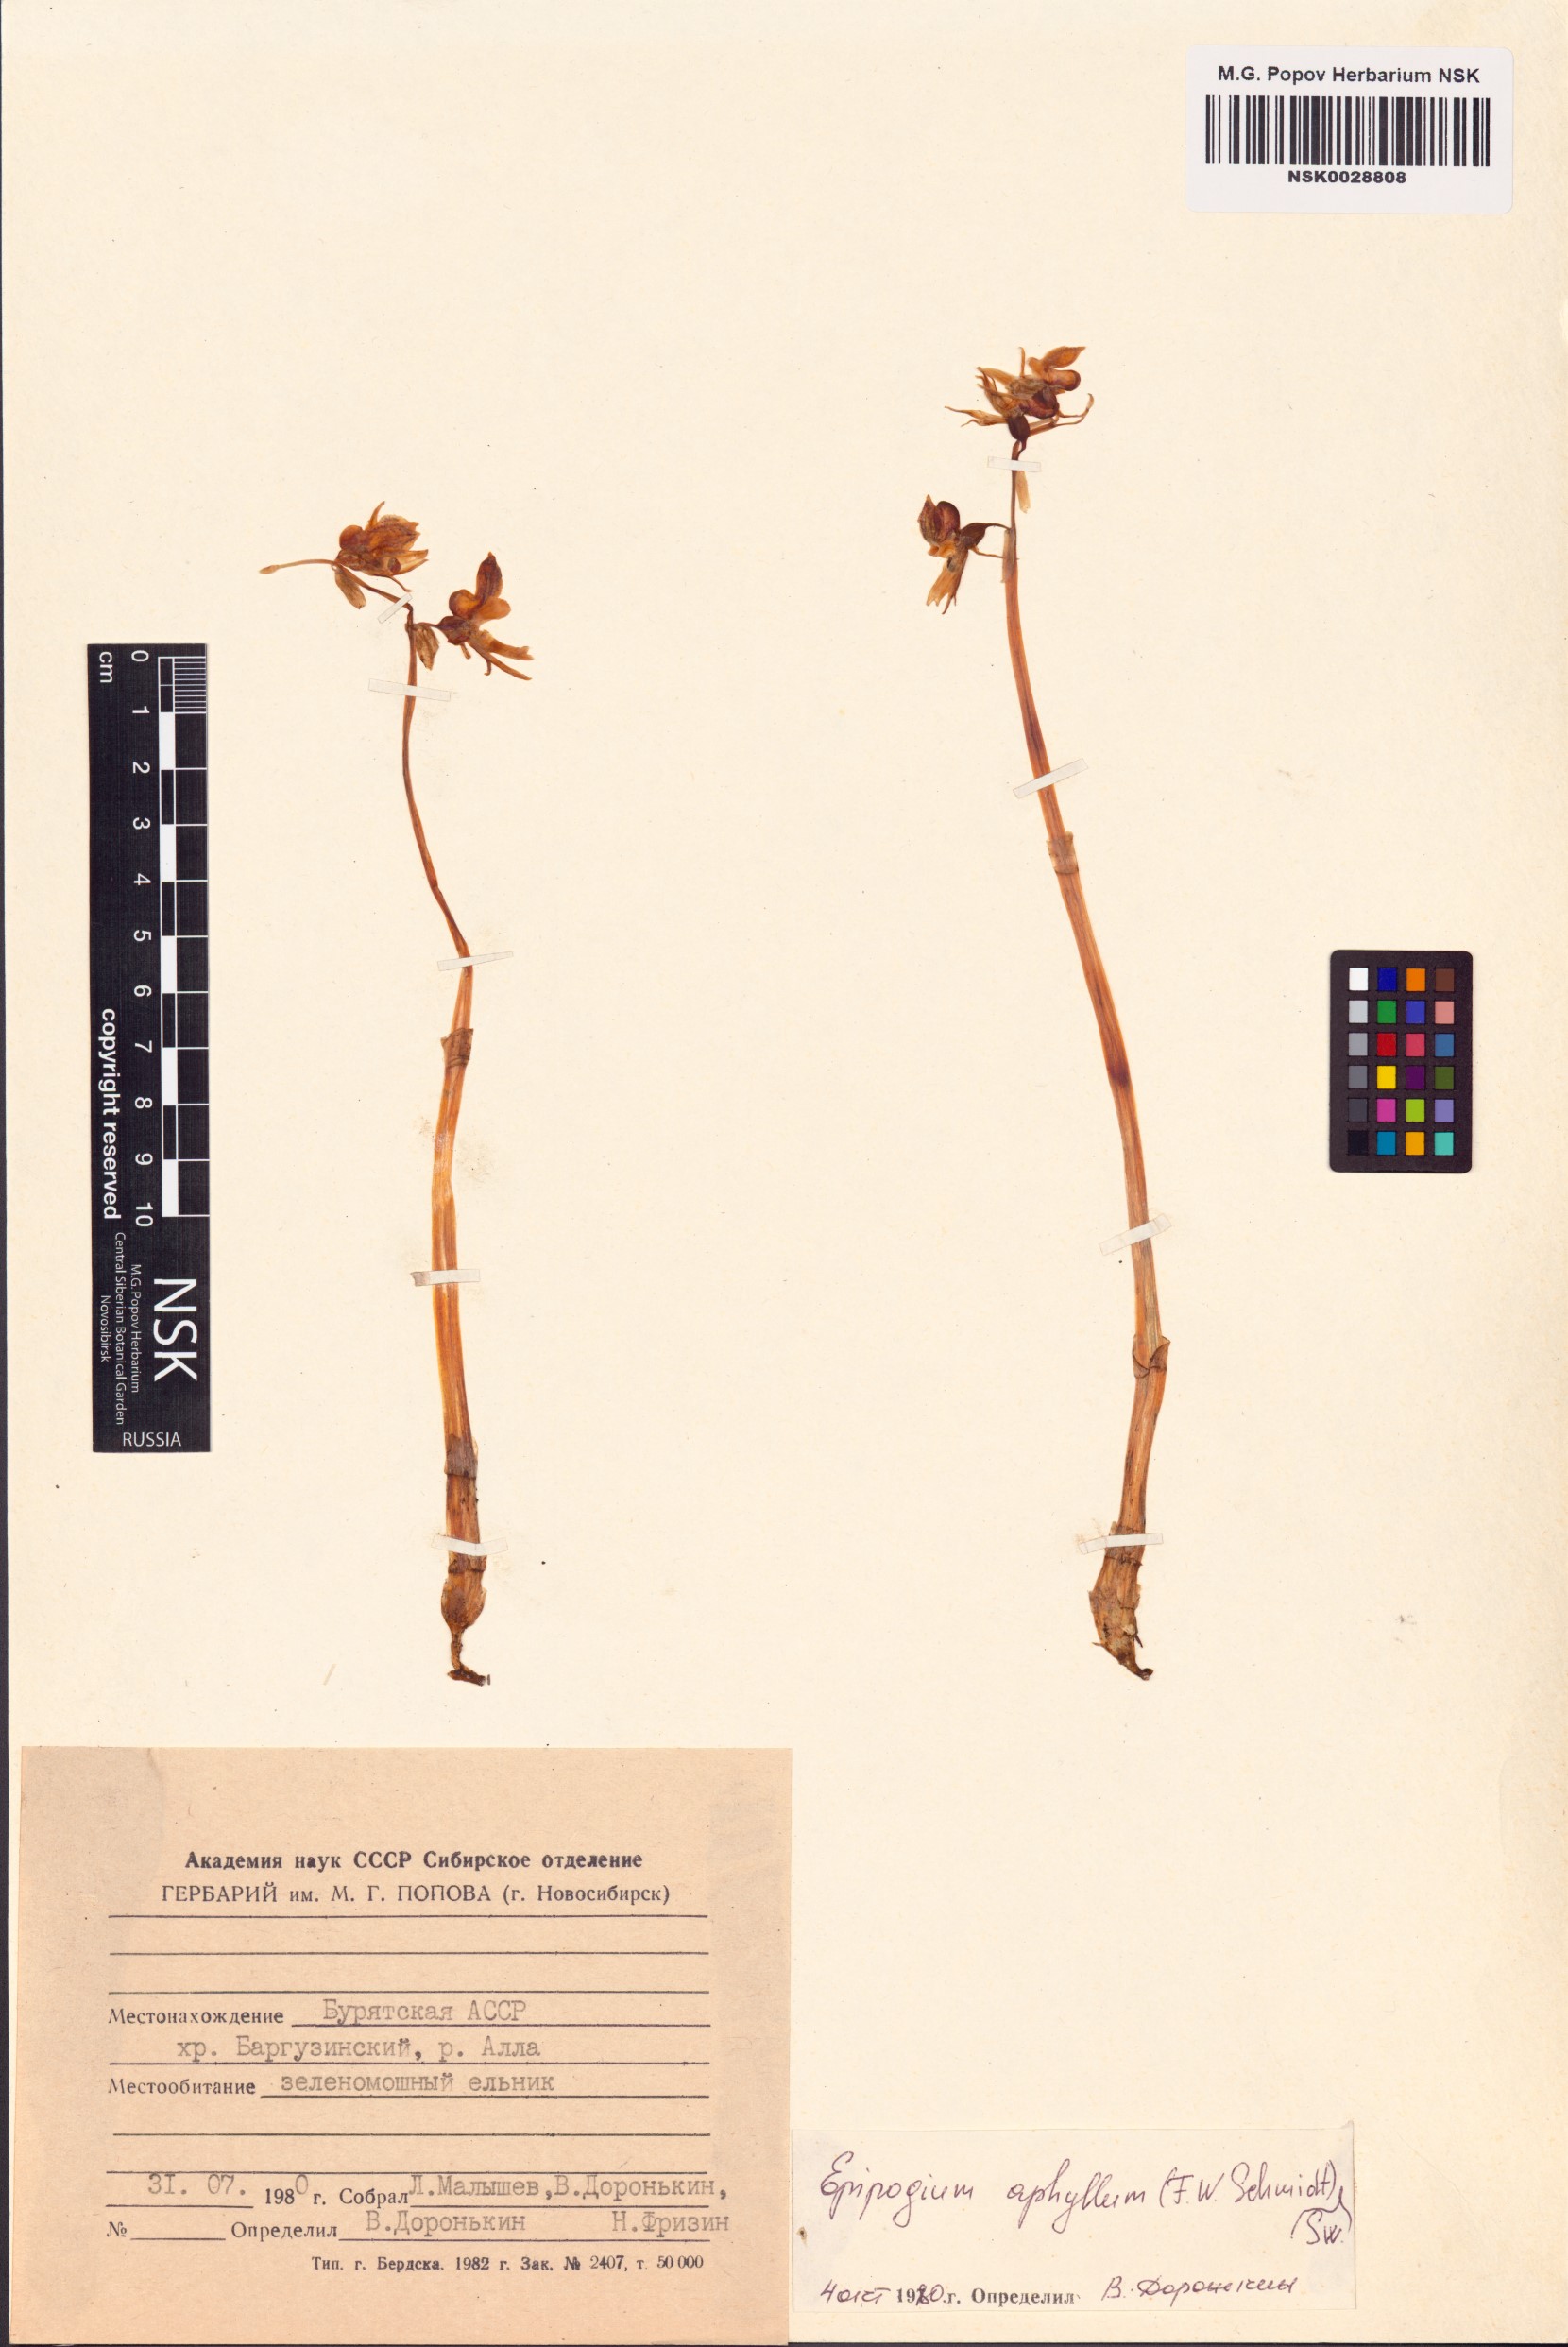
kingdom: Plantae
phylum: Tracheophyta
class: Liliopsida
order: Asparagales
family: Orchidaceae
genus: Epipogium
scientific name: Epipogium aphyllum
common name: Ghost orchid
